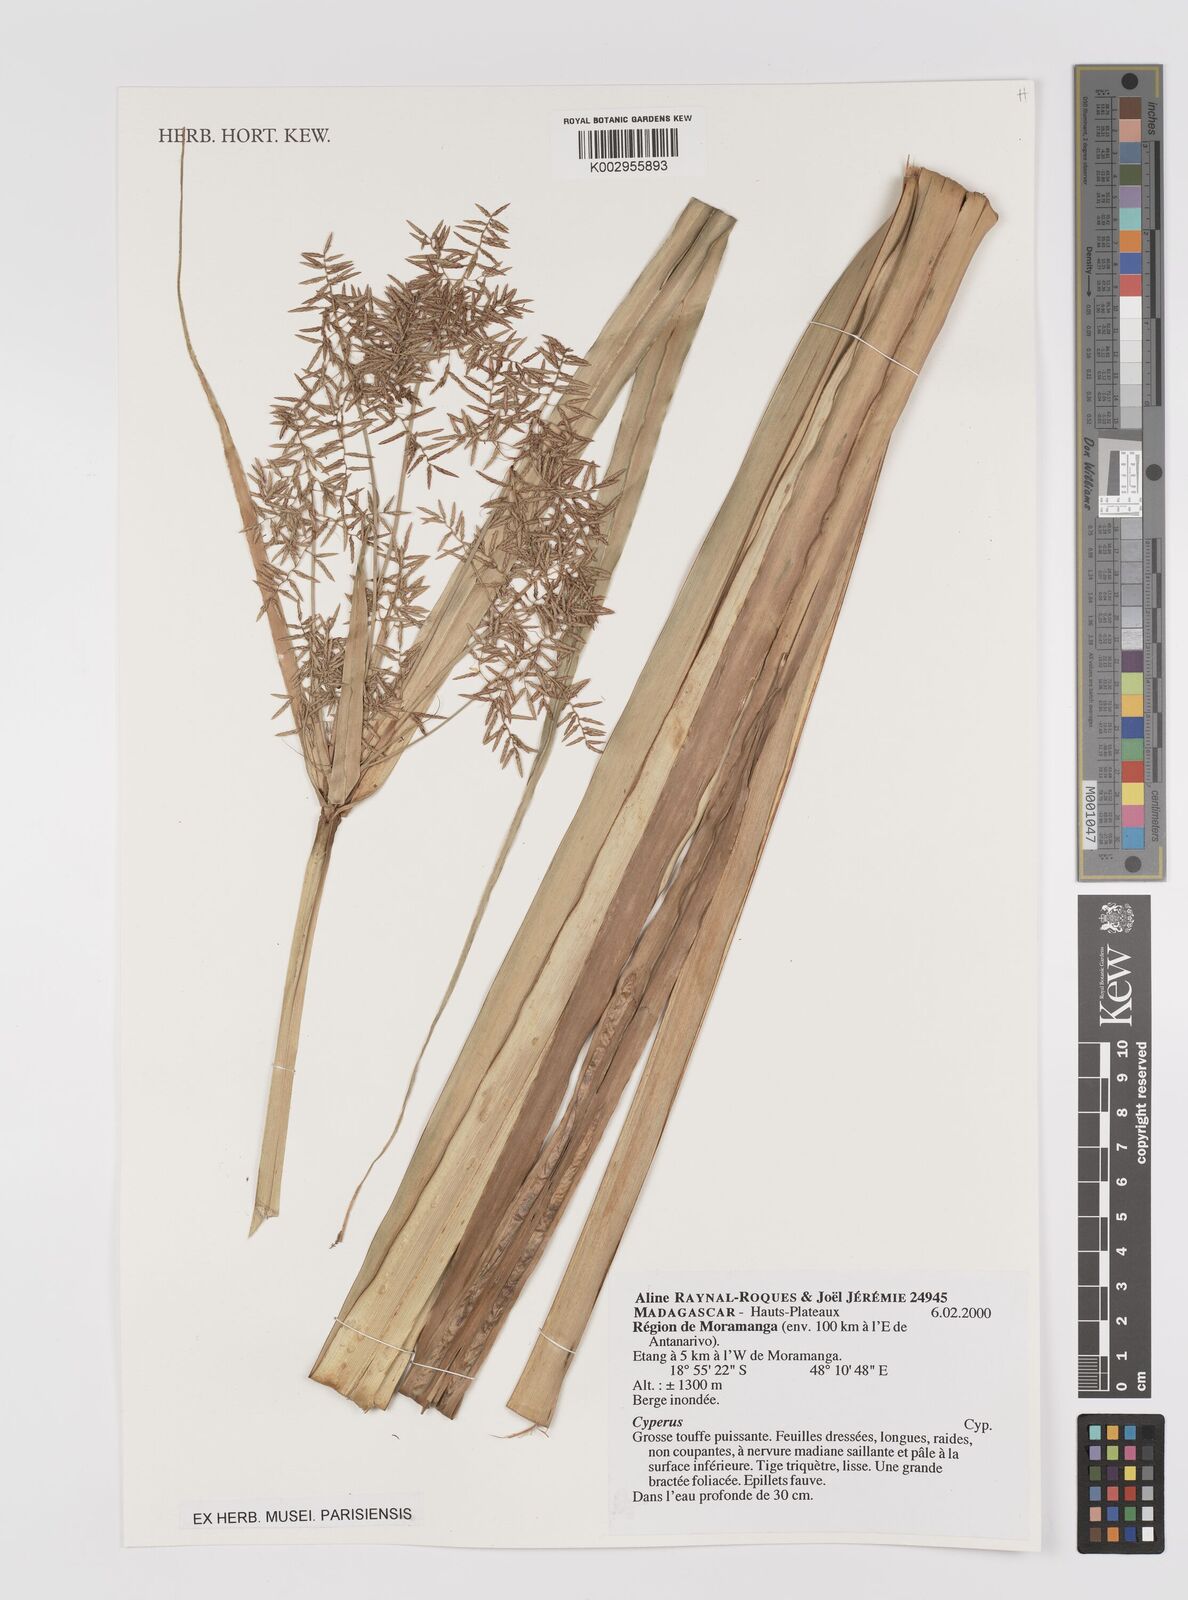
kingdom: Plantae
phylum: Tracheophyta
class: Liliopsida
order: Poales
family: Cyperaceae
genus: Cyperus
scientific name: Cyperus
